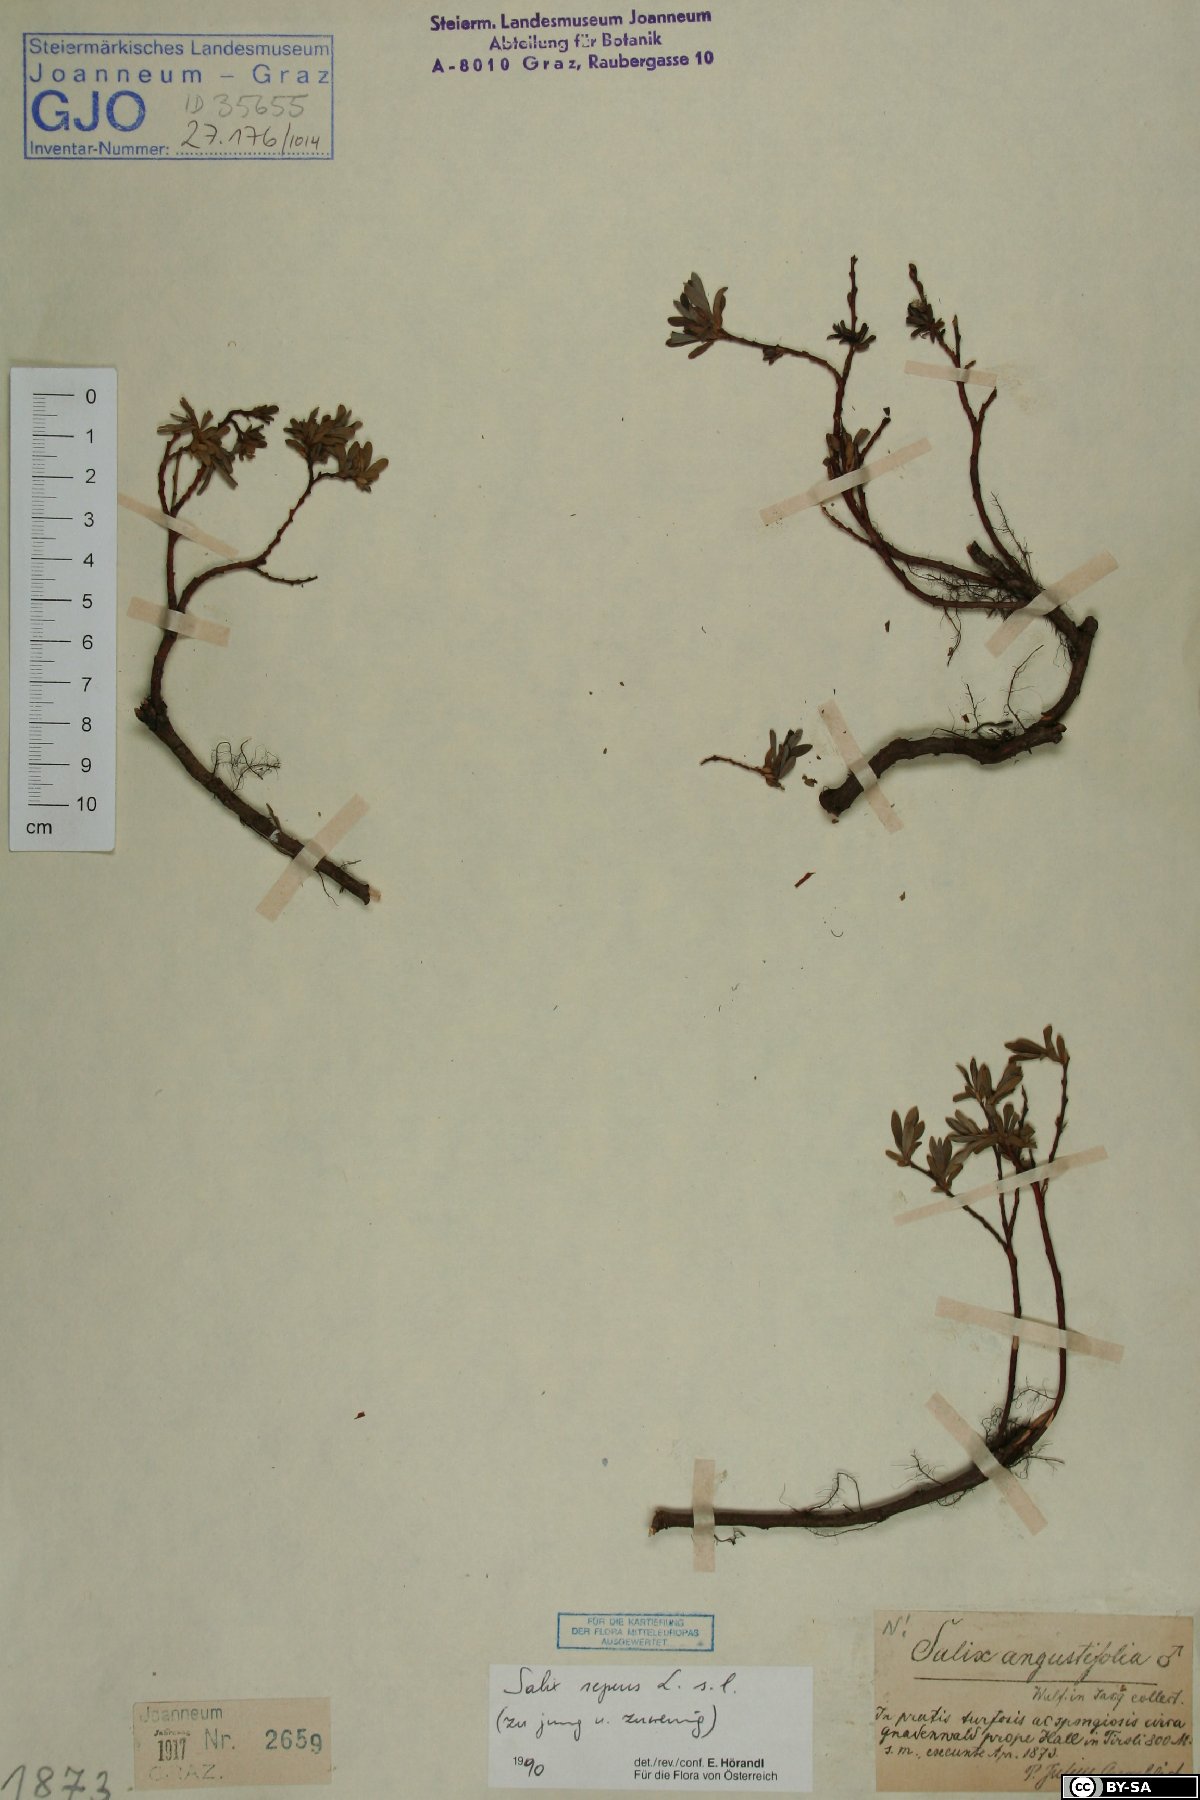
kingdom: Plantae
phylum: Tracheophyta
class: Magnoliopsida
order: Malpighiales
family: Salicaceae
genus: Salix
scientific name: Salix repens
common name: Creeping willow
